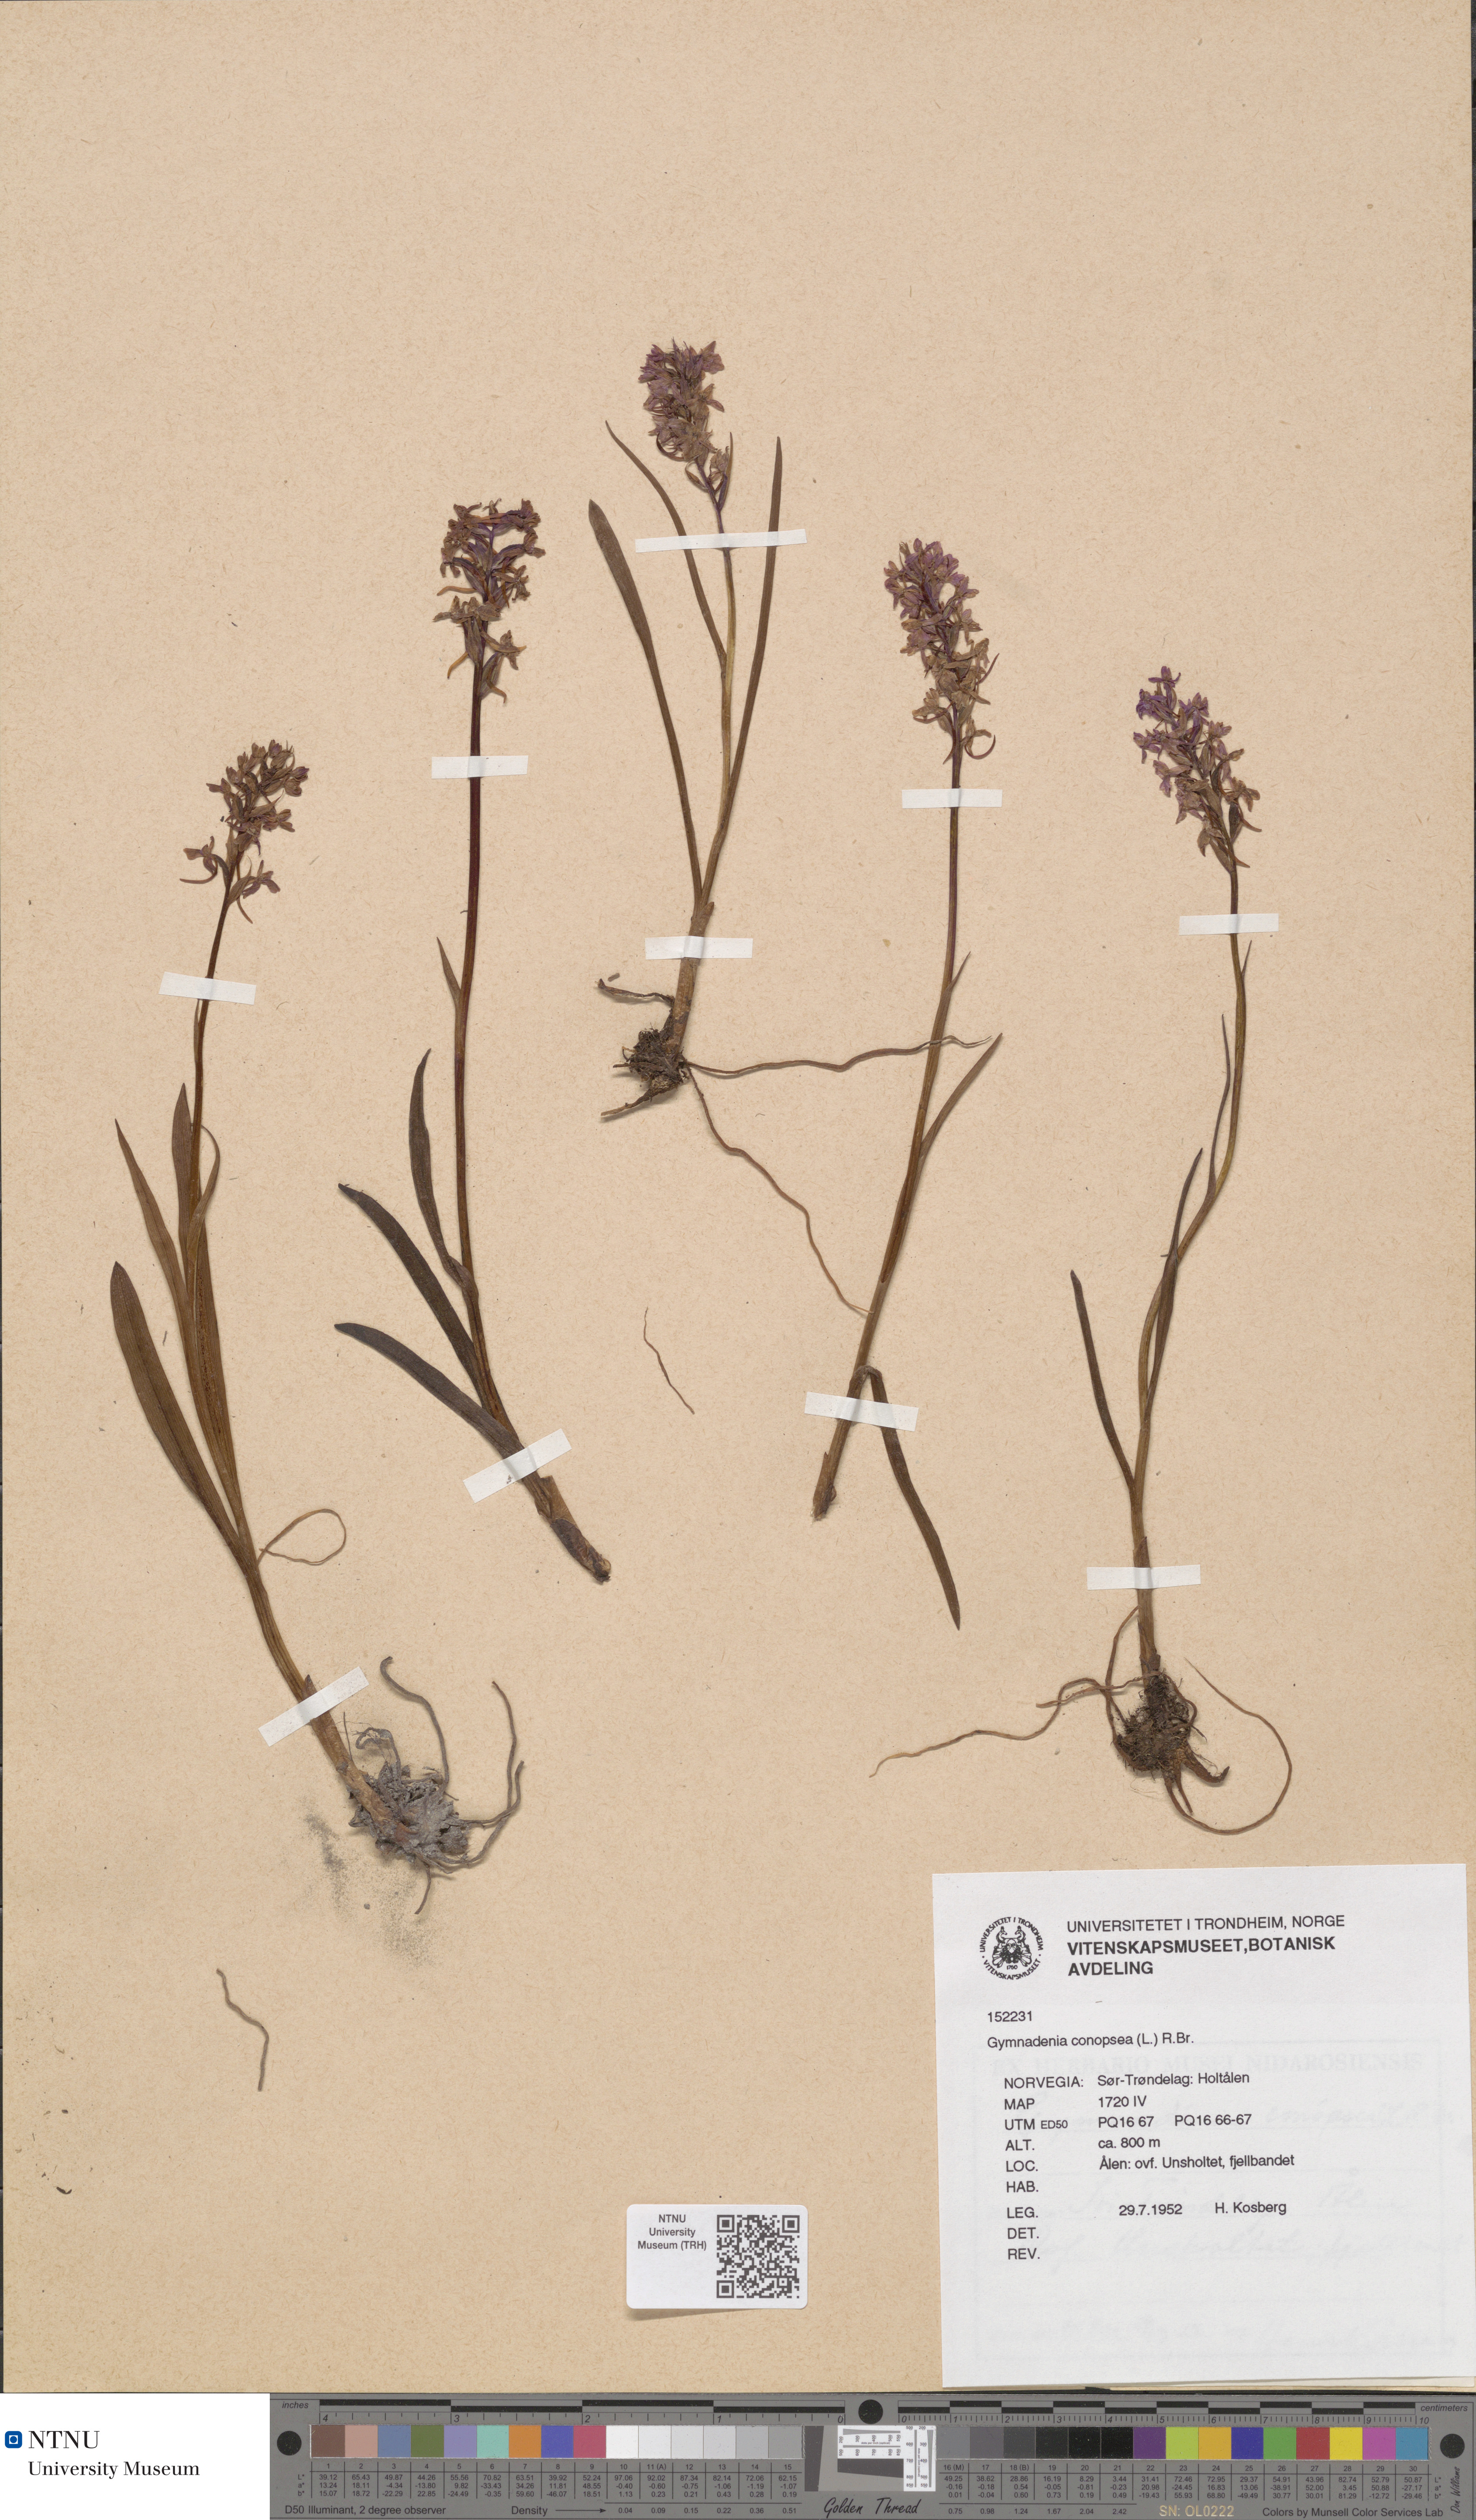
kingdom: Plantae
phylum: Tracheophyta
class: Liliopsida
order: Asparagales
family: Orchidaceae
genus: Gymnadenia
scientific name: Gymnadenia conopsea
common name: Fragrant orchid
